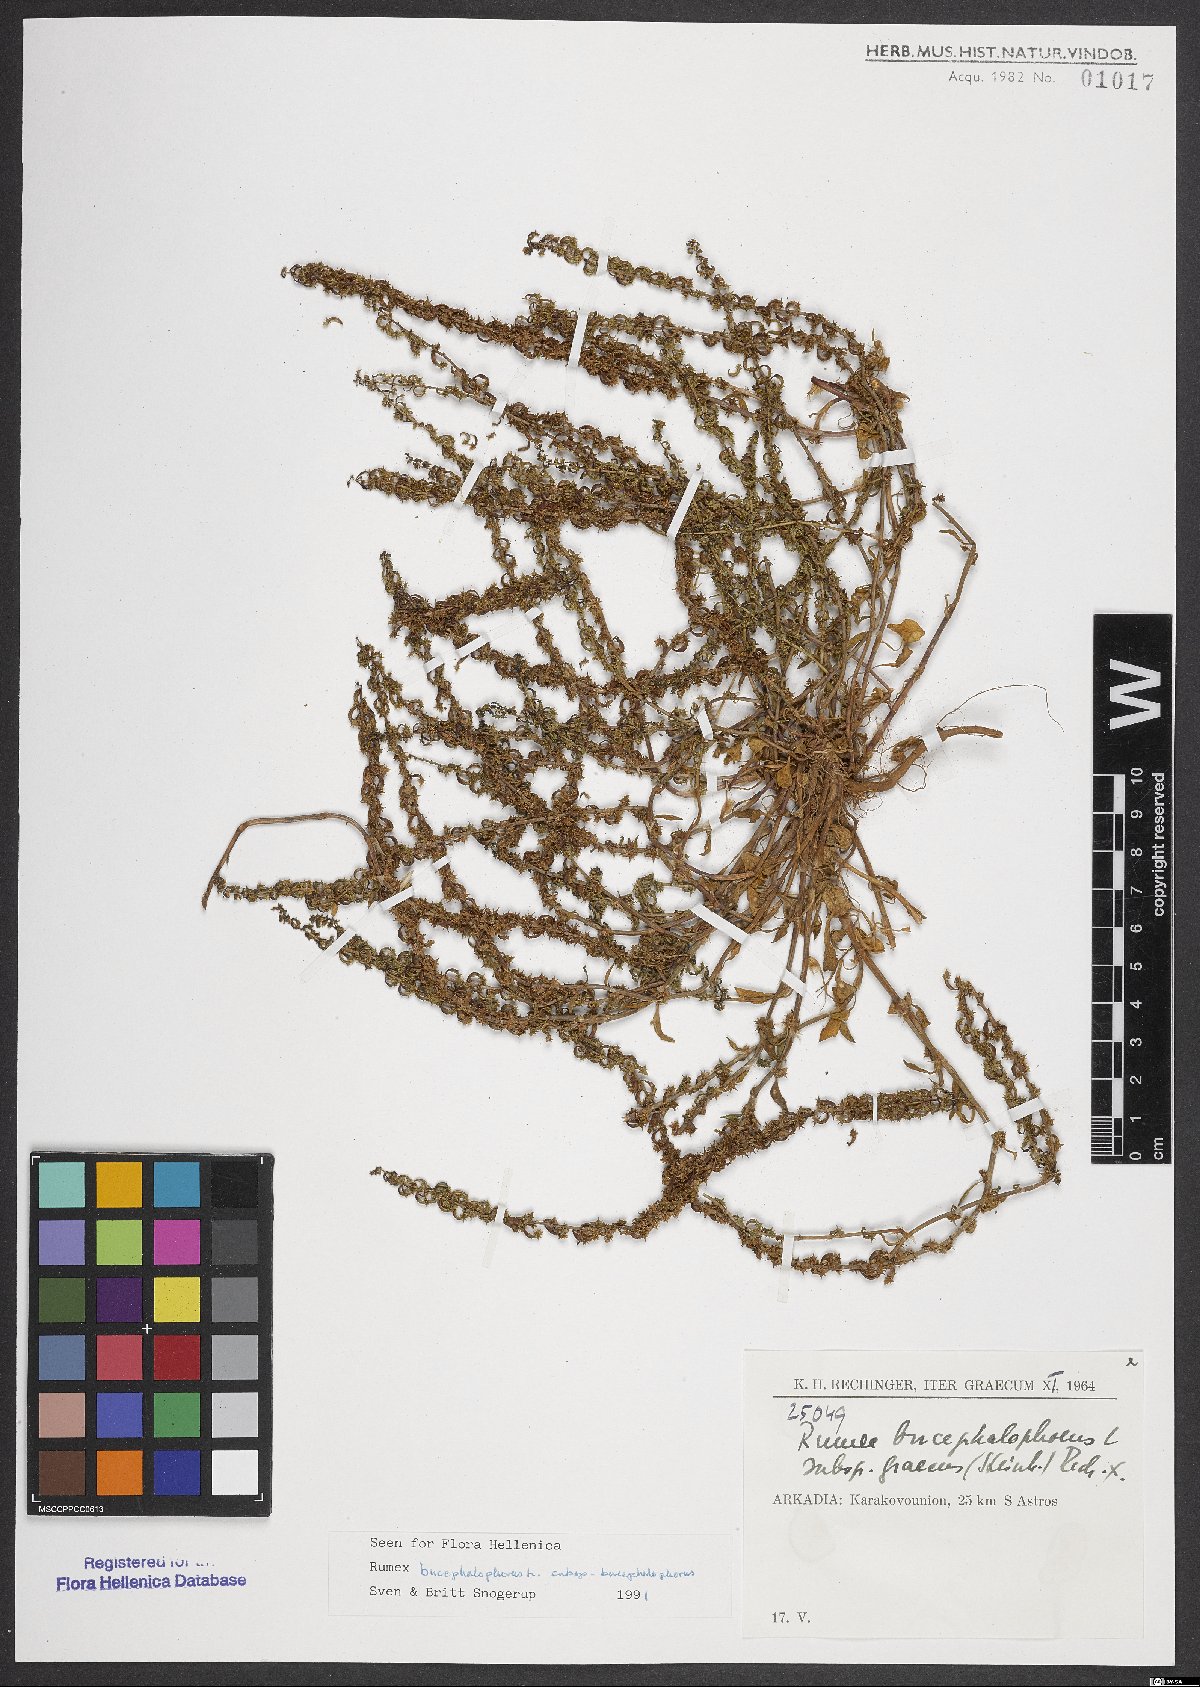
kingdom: Plantae
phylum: Tracheophyta
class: Magnoliopsida
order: Caryophyllales
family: Polygonaceae
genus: Rumex
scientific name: Rumex bucephalophorus
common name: Red dock
